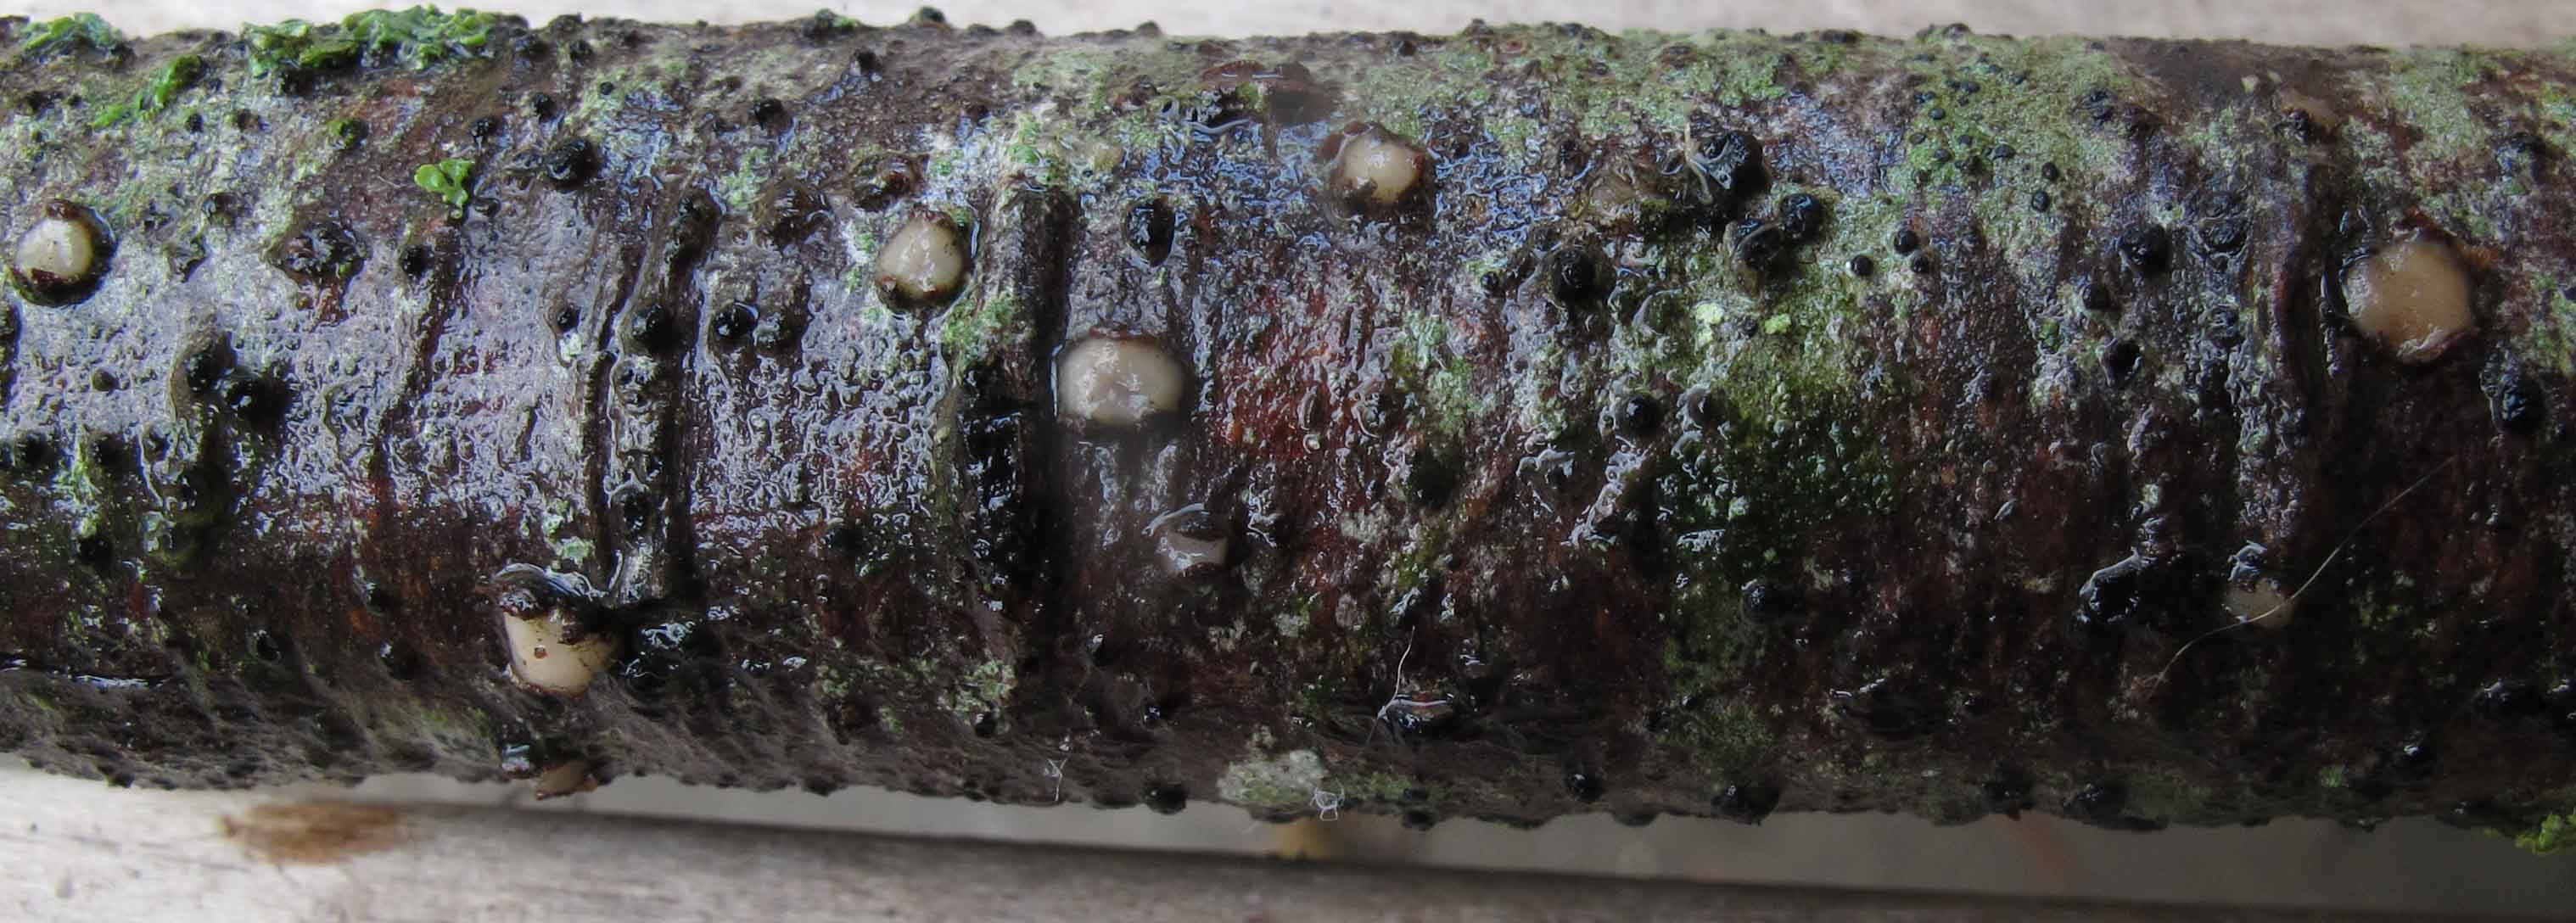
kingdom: Fungi
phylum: Basidiomycota
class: Pucciniomycetes
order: Platygloeales
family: Platygloeaceae
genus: Platygloea
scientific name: Platygloea disciformis
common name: linde-slimklat
